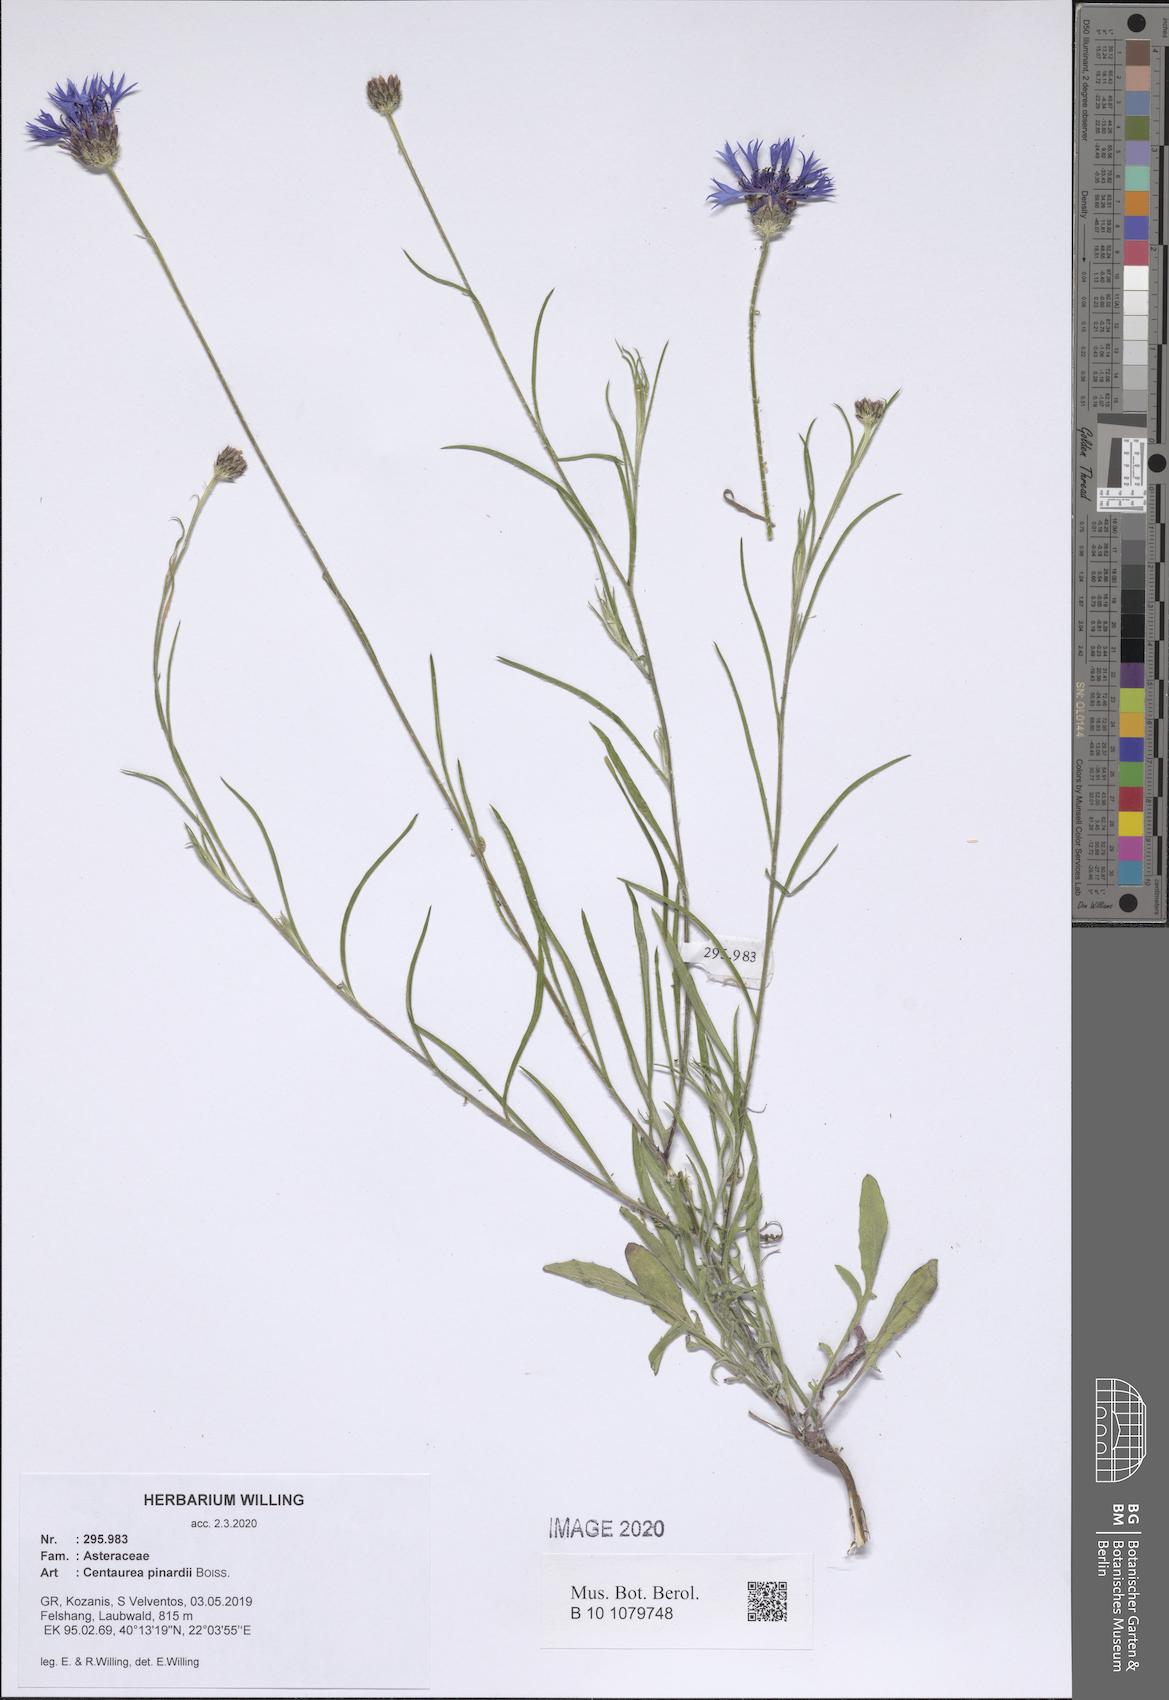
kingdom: Plantae
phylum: Tracheophyta
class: Magnoliopsida
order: Asterales
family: Asteraceae
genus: Centaurea
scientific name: Centaurea pinardii
